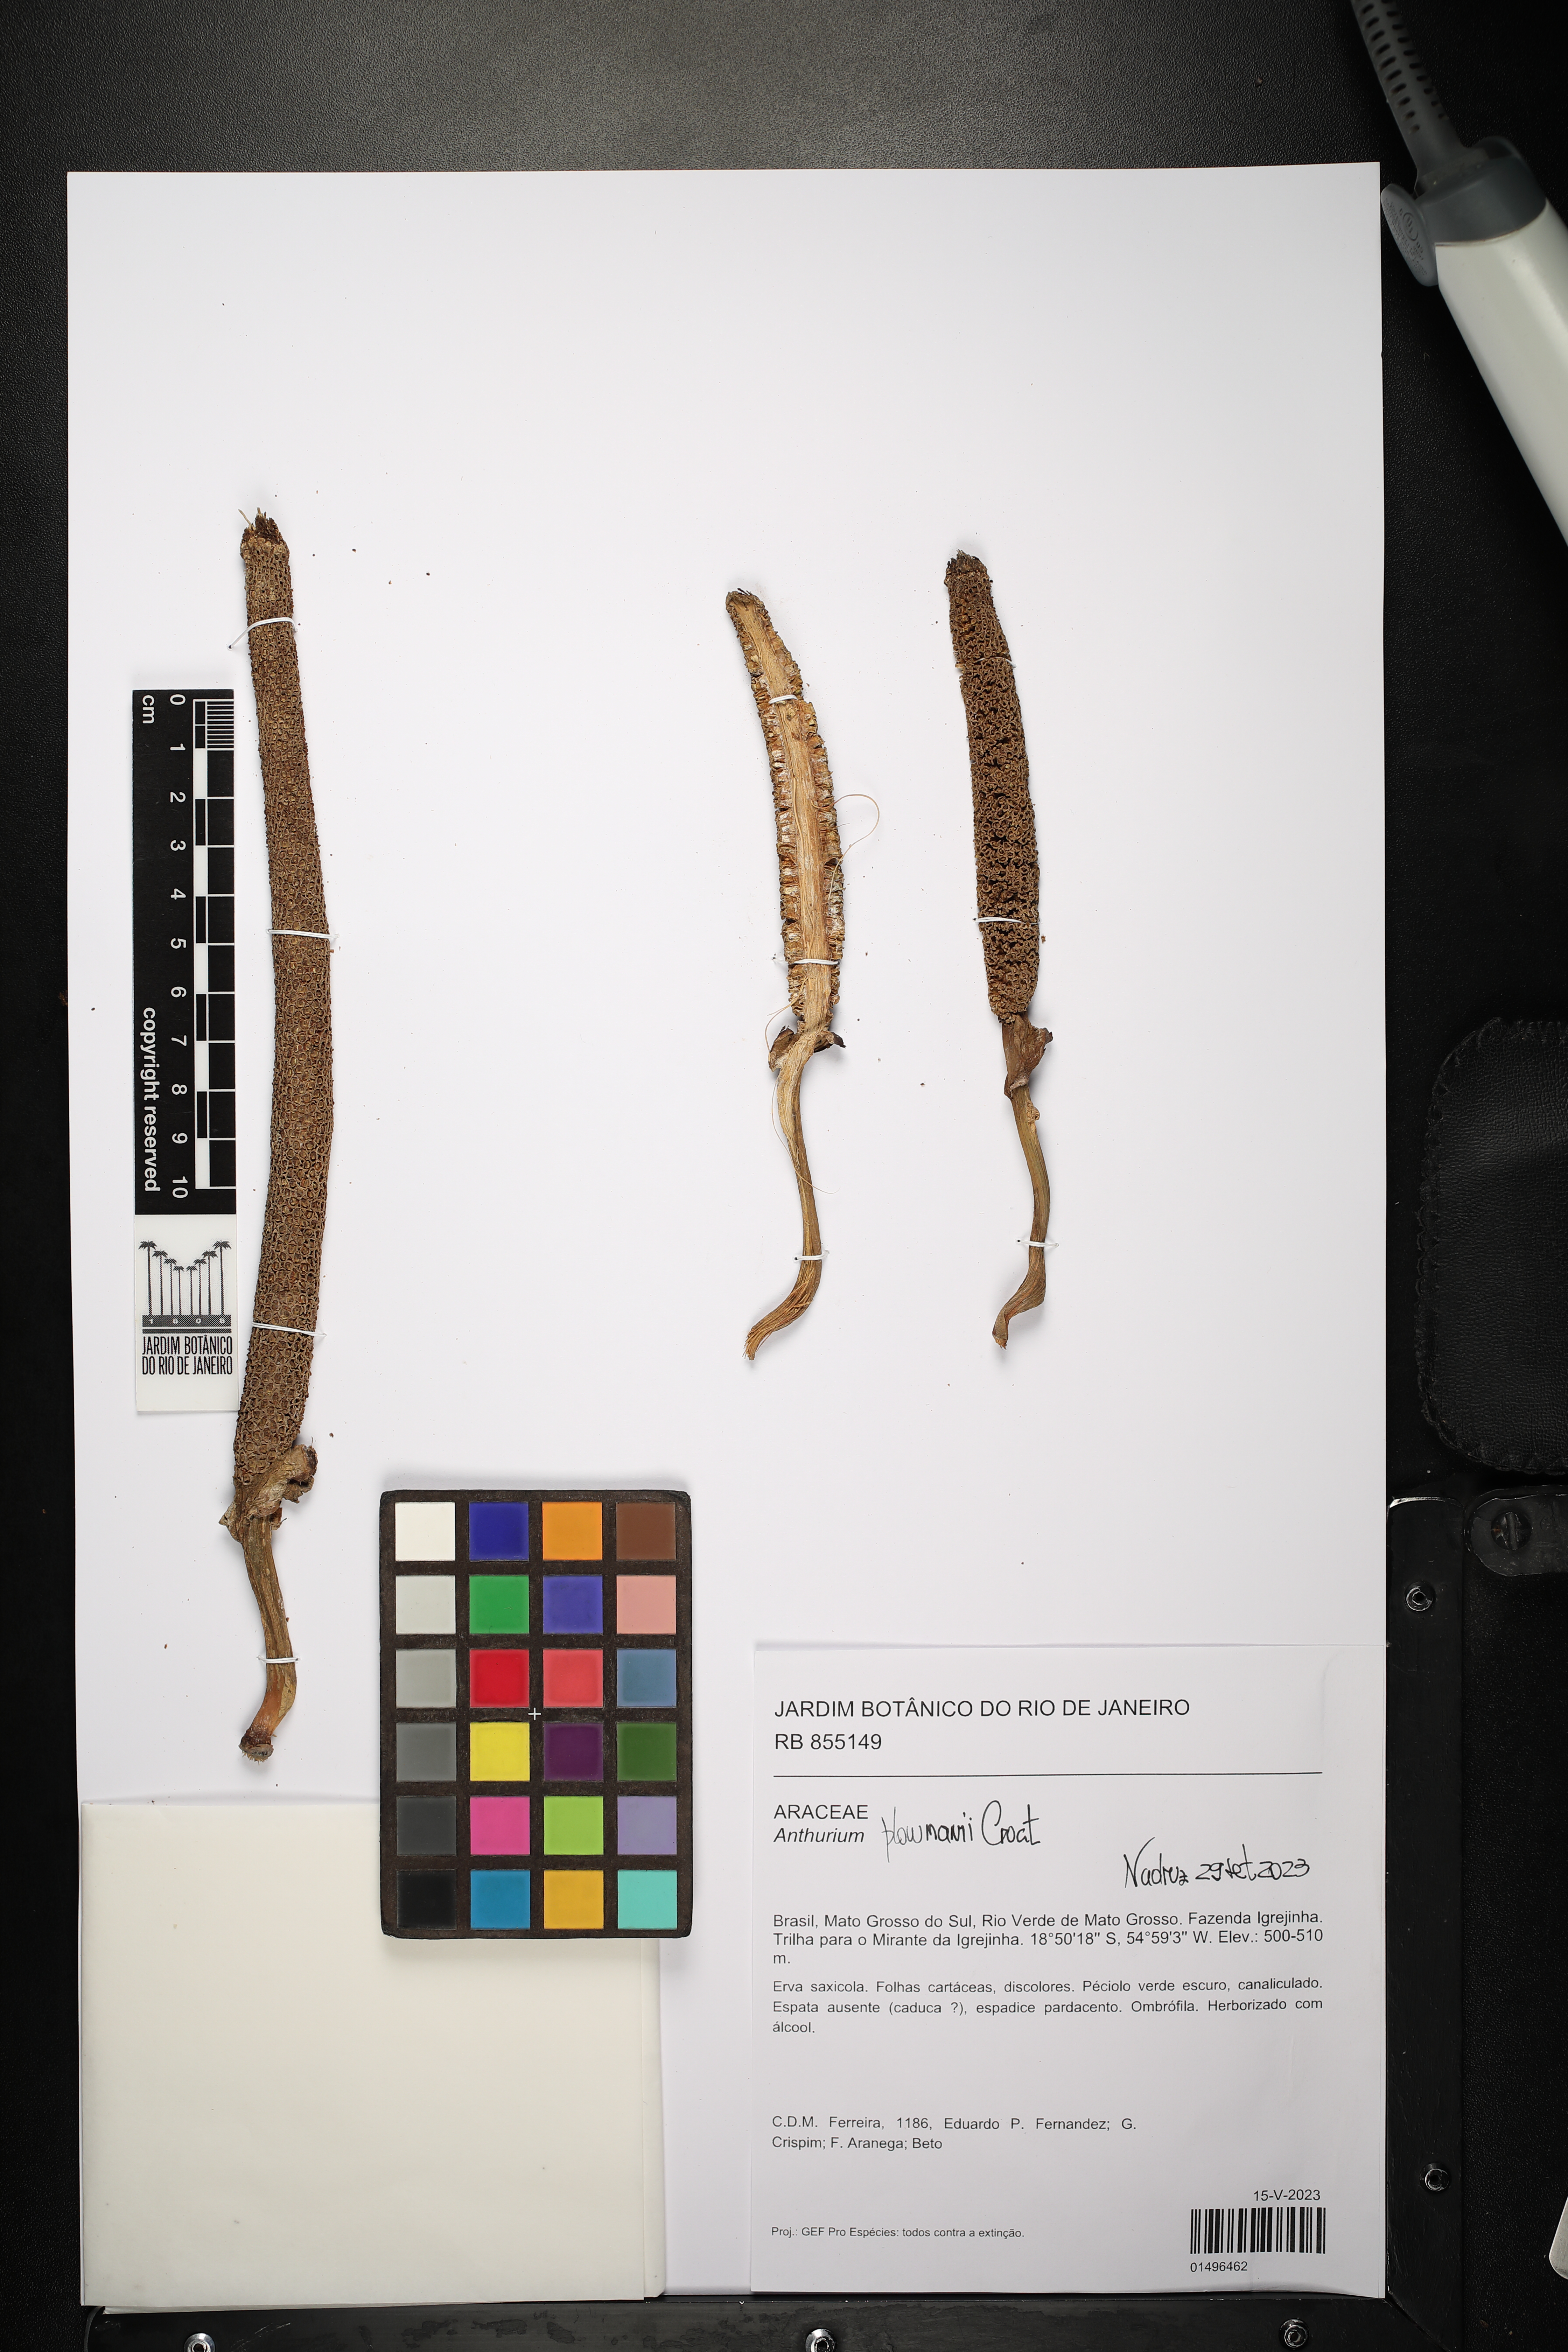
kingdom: Plantae
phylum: Tracheophyta
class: Liliopsida
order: Alismatales
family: Araceae
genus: Anthurium
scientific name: Anthurium plowmanii
